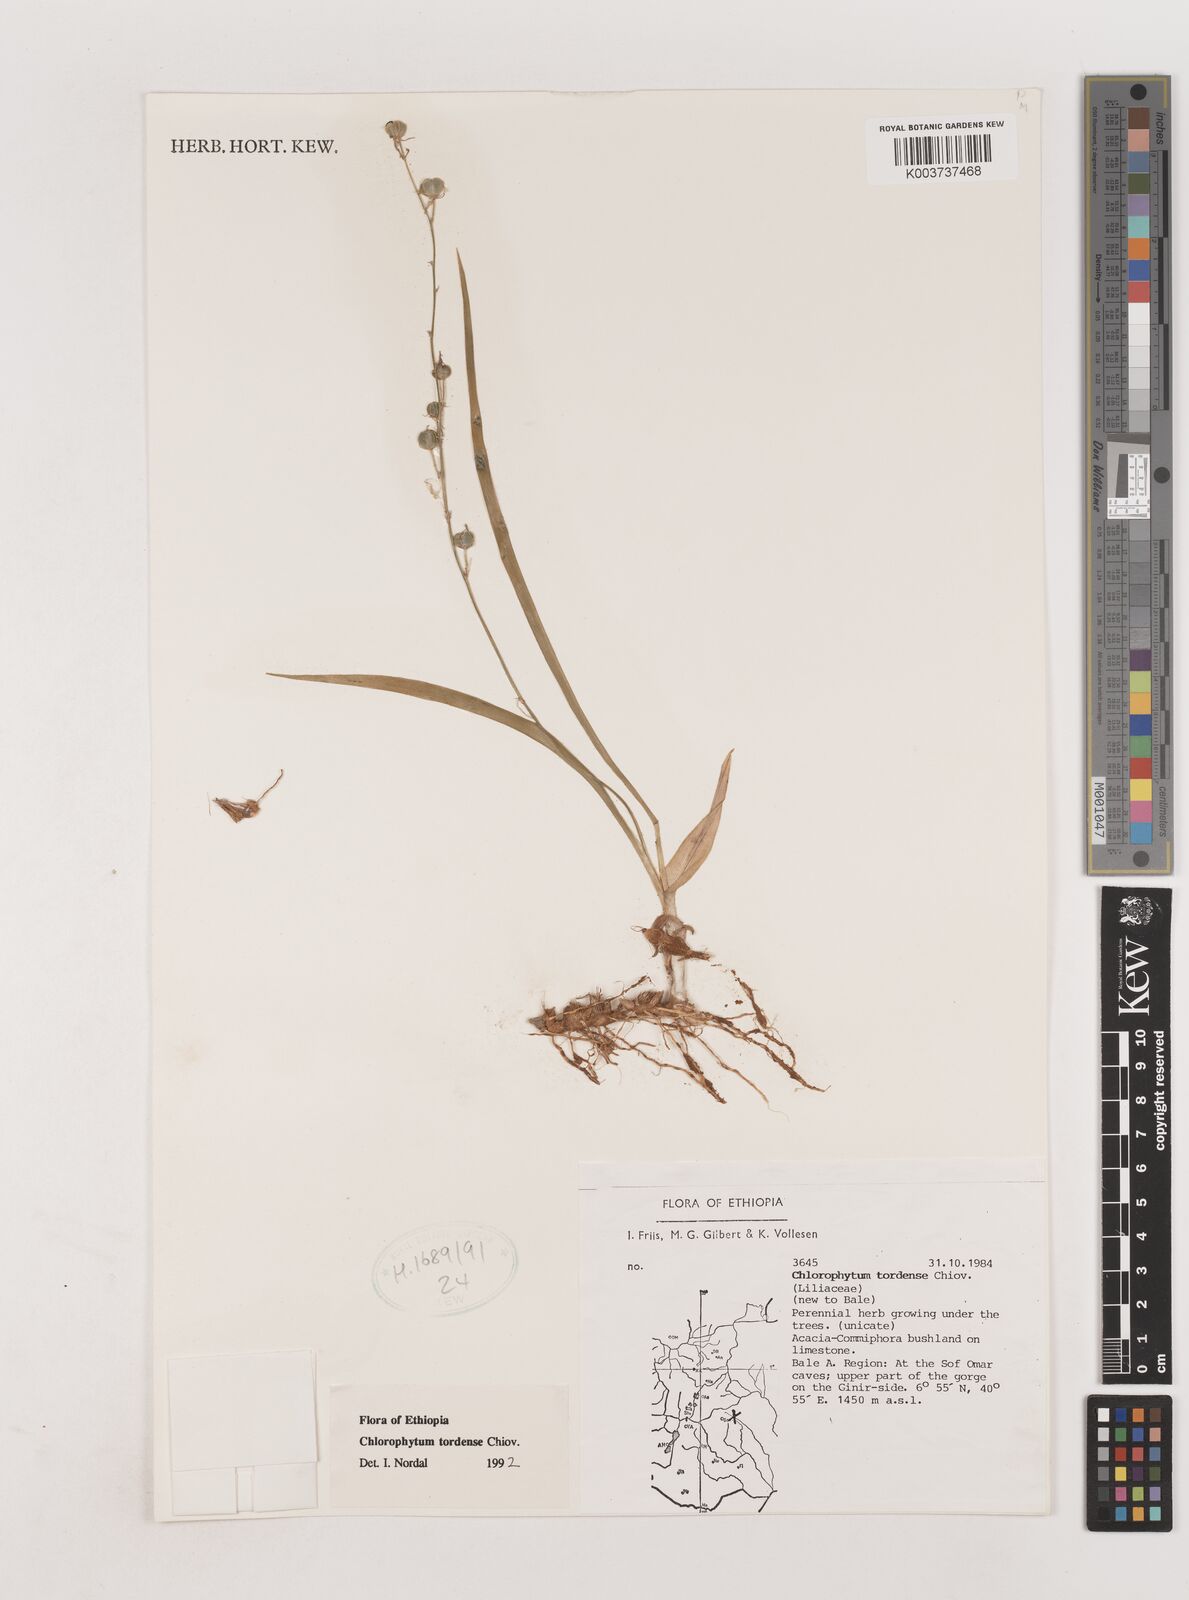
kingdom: Plantae
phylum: Tracheophyta
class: Liliopsida
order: Asparagales
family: Asparagaceae
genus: Chlorophytum
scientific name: Chlorophytum tordense
